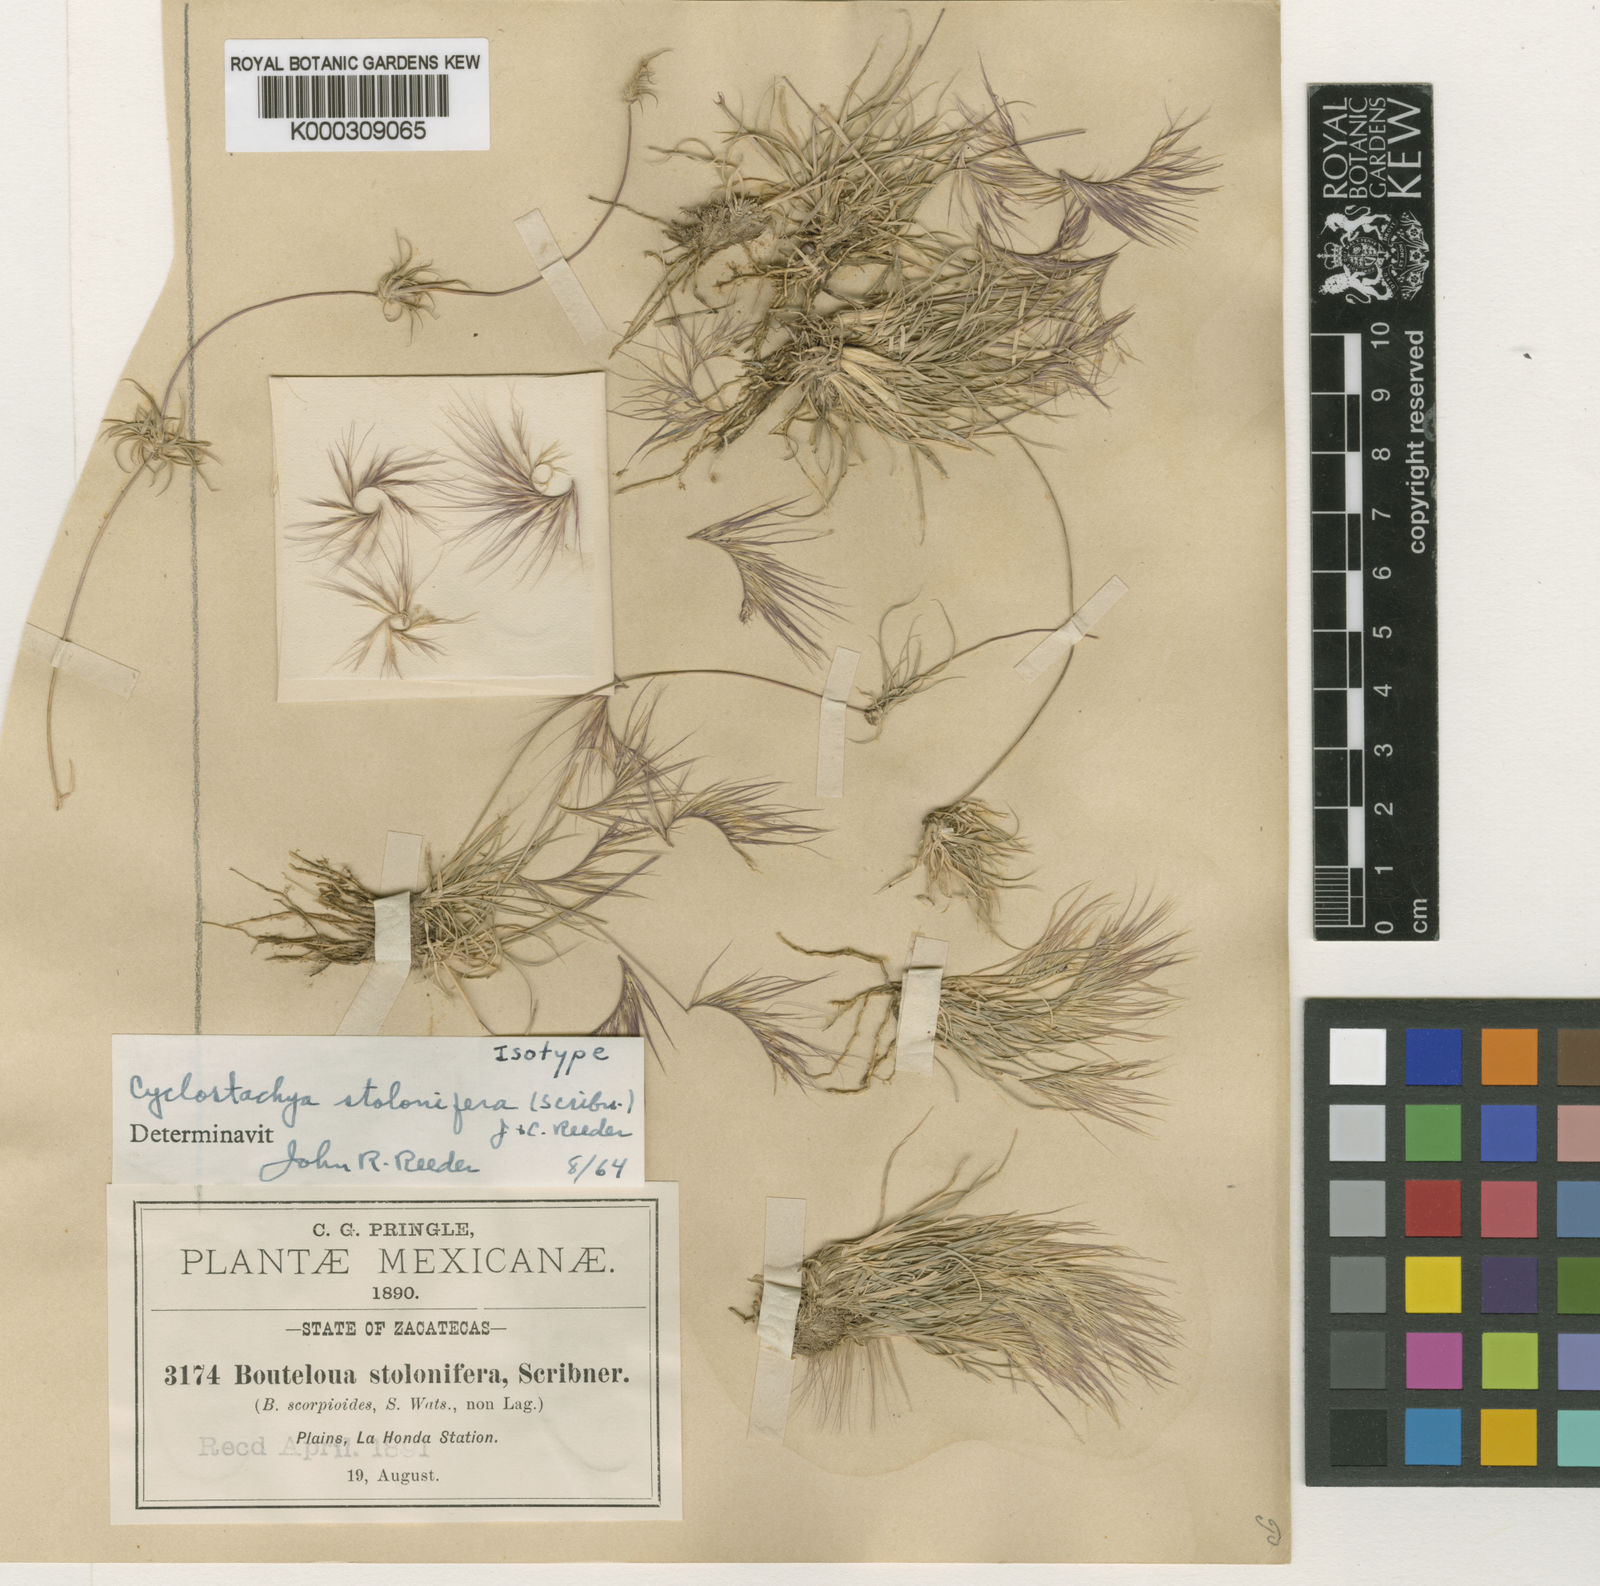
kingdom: Plantae
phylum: Tracheophyta
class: Liliopsida
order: Poales
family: Poaceae
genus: Bouteloua
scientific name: Bouteloua stolonifera
